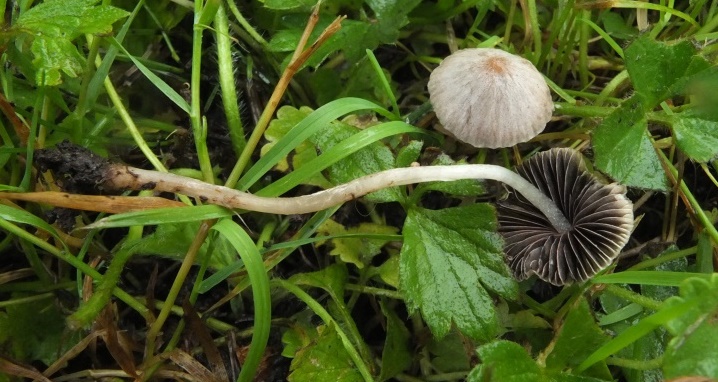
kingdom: Fungi
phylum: Basidiomycota
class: Agaricomycetes
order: Agaricales
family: Psathyrellaceae
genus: Psathyrella
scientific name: Psathyrella pseudogracilis
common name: slank mørkhat
